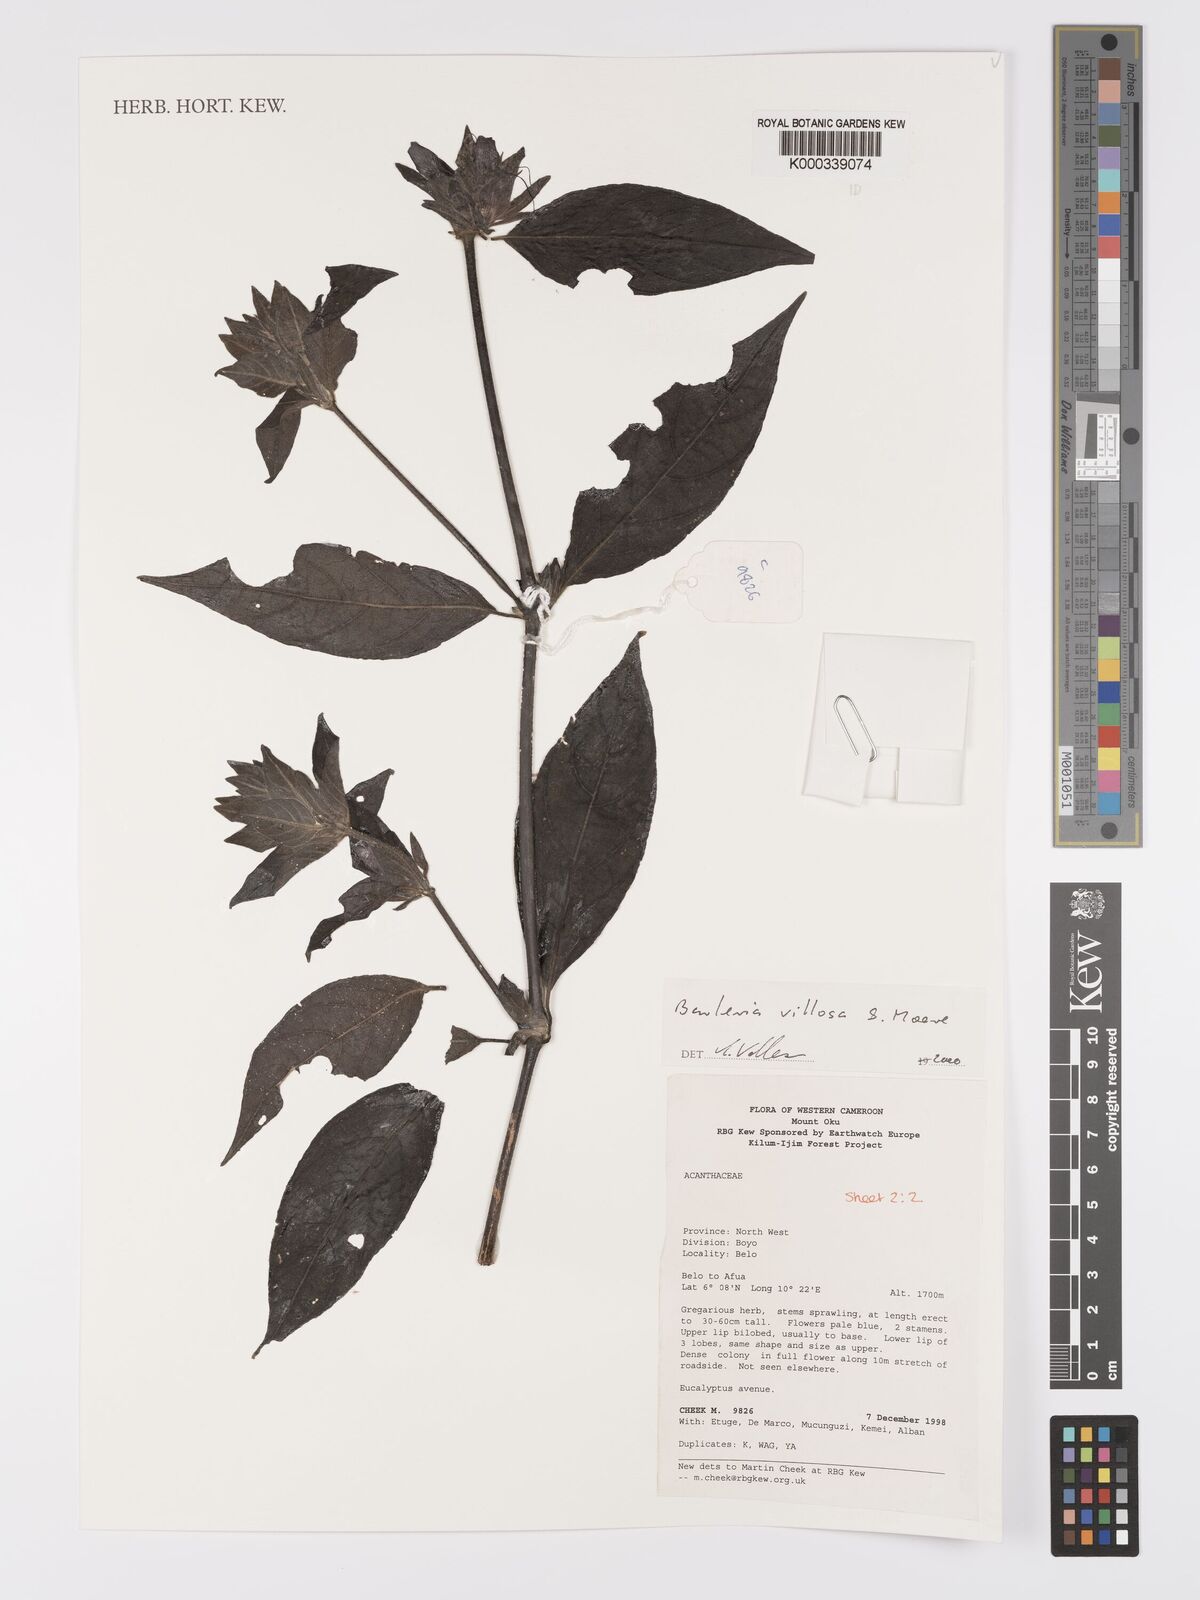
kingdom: Plantae
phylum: Tracheophyta
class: Magnoliopsida
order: Lamiales
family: Acanthaceae
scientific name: Acanthaceae
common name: Acanthaceae
